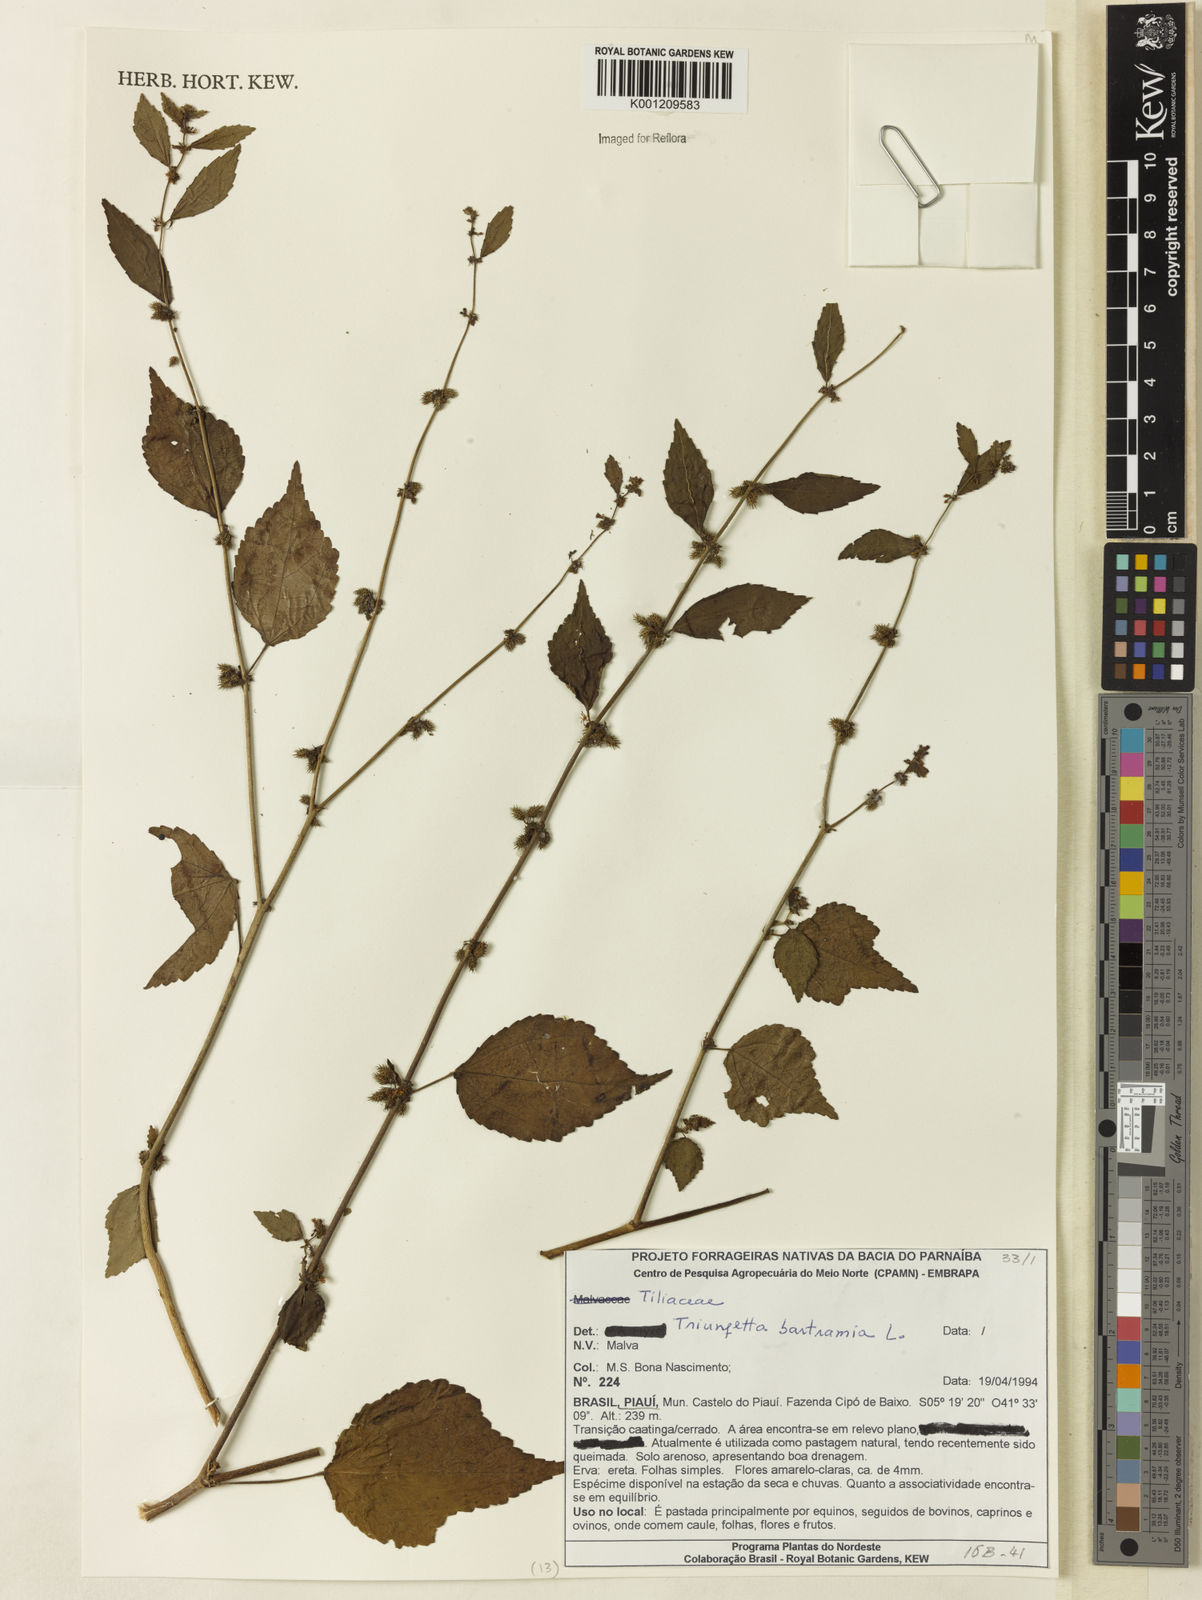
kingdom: Plantae
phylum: Tracheophyta
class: Magnoliopsida
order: Malvales
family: Malvaceae
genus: Triumfetta
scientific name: Triumfetta rhomboidea
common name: Diamond burbark
